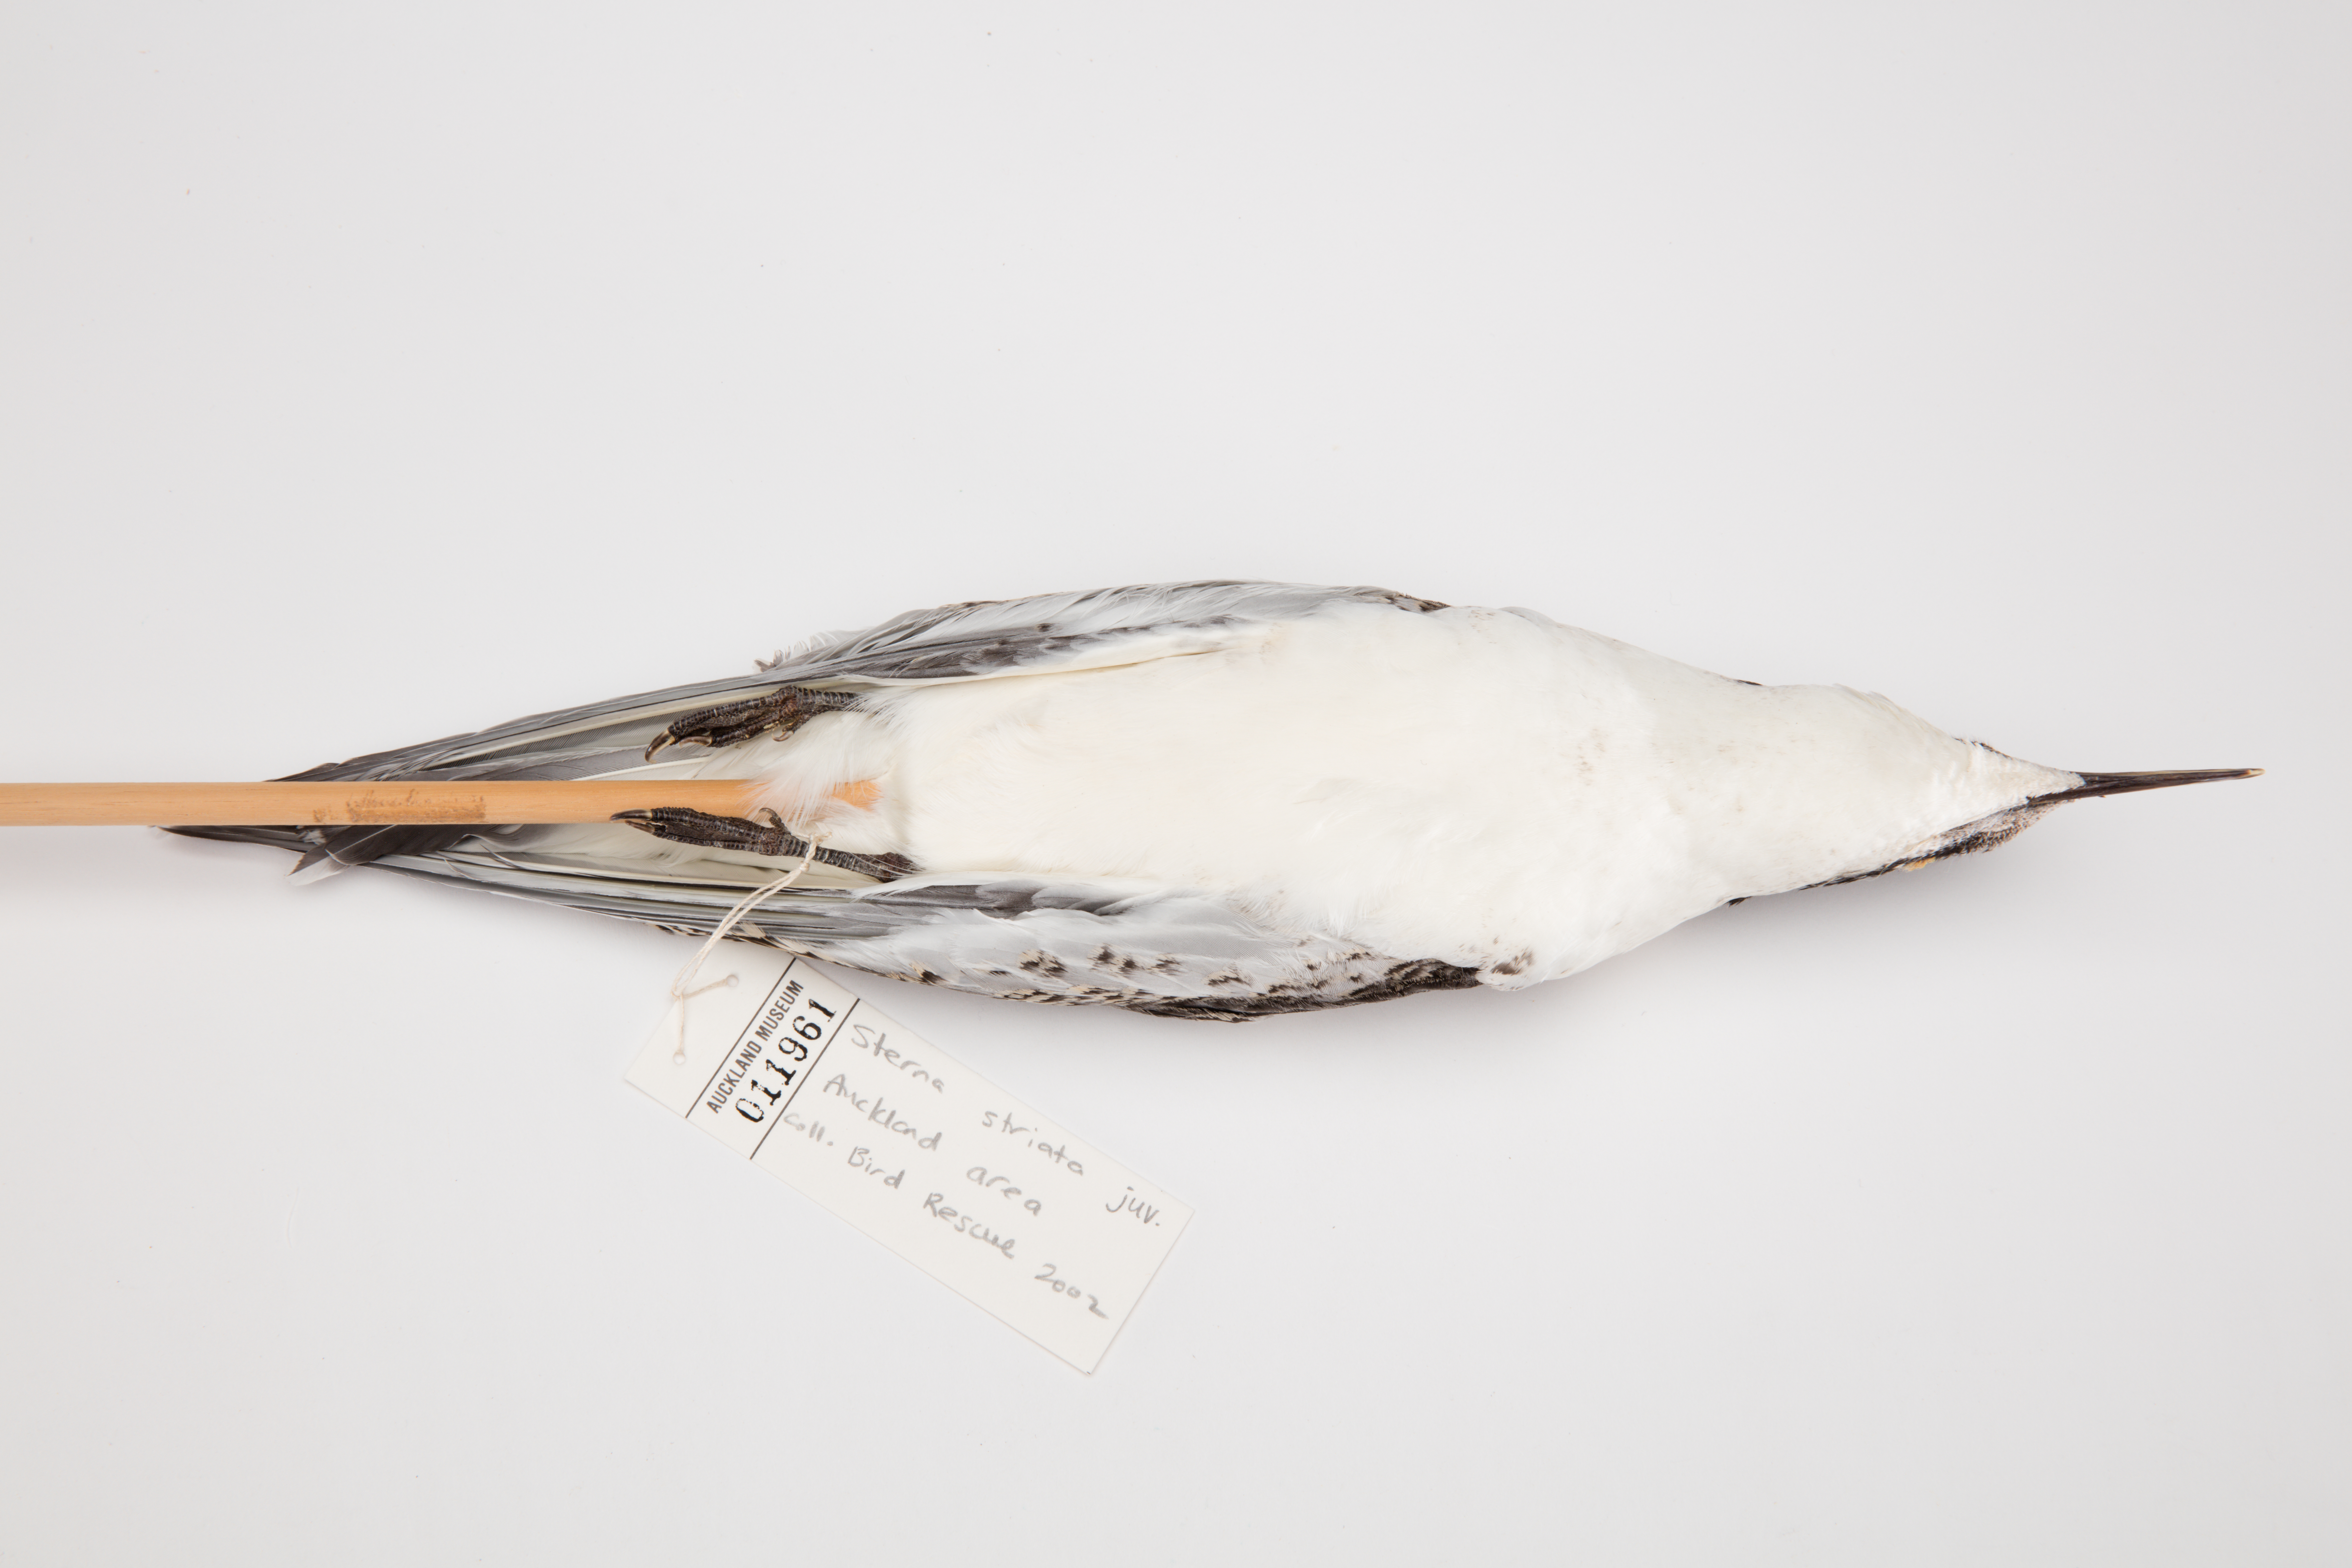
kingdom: Animalia
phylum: Chordata
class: Aves
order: Charadriiformes
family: Laridae
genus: Sterna
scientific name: Sterna striata
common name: White-fronted tern
